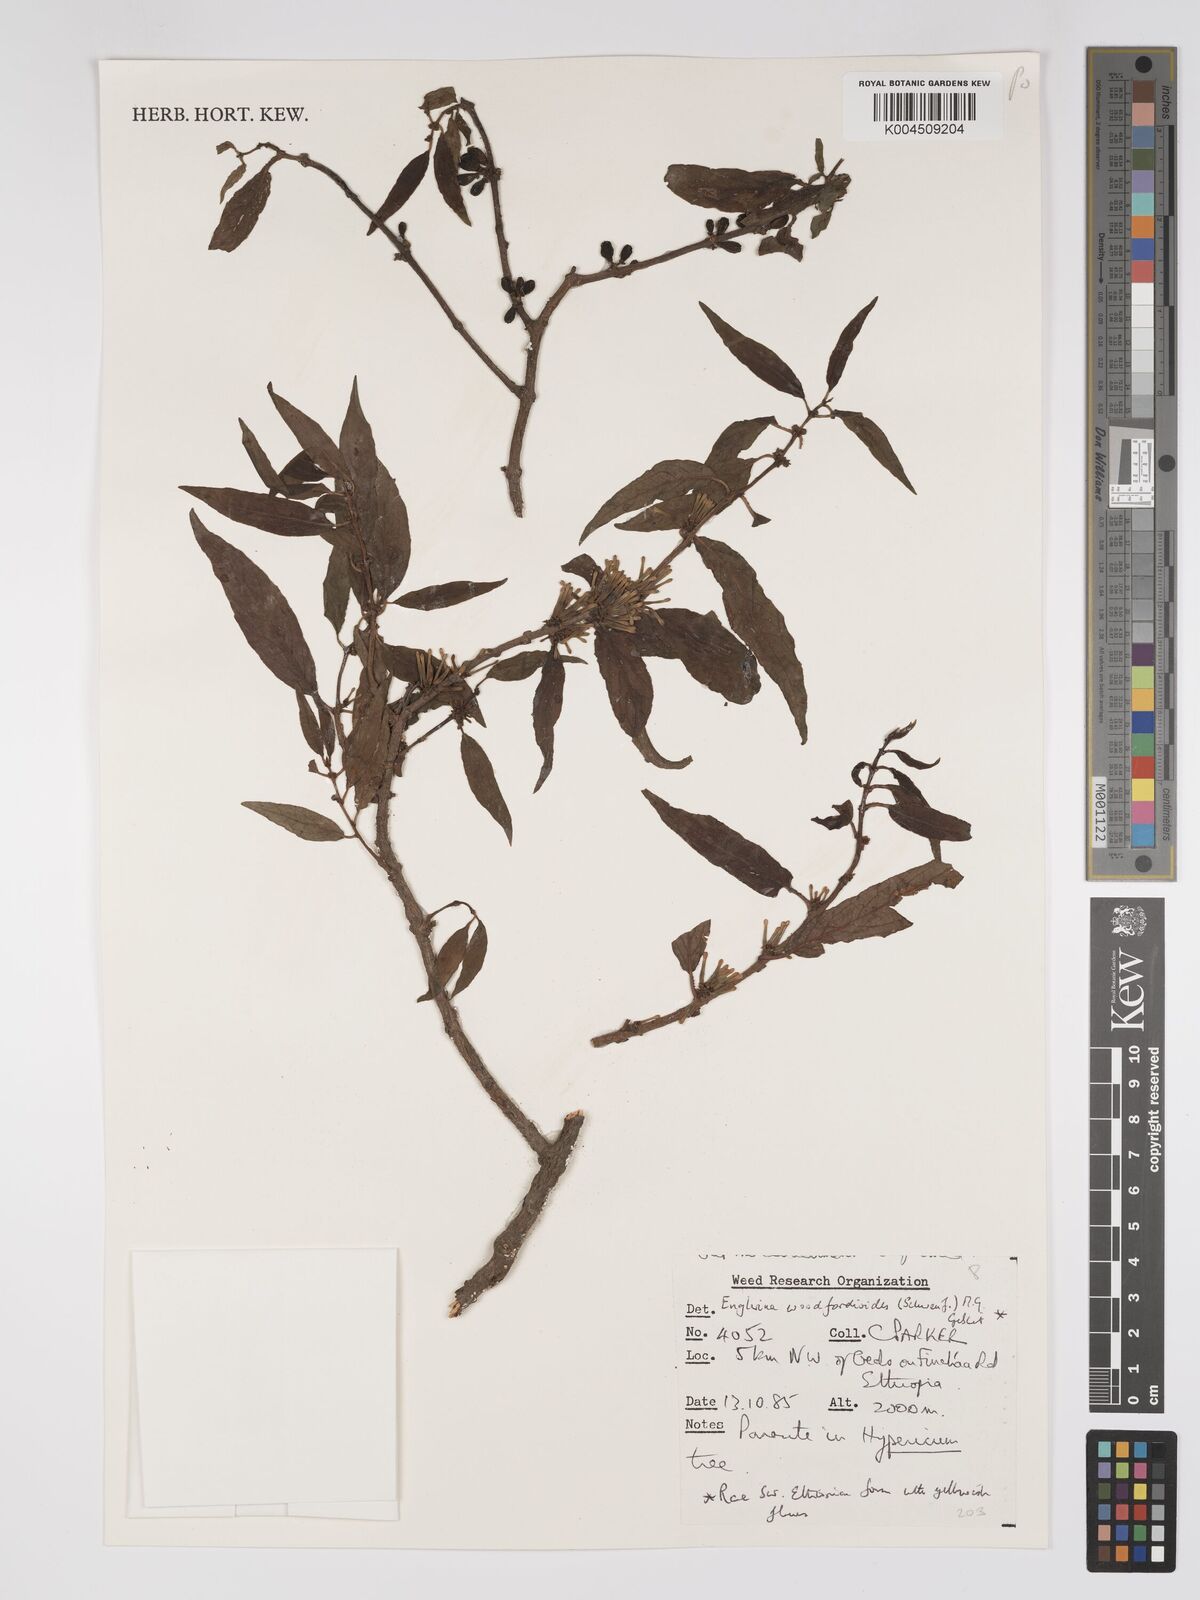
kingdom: Plantae
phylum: Tracheophyta
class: Magnoliopsida
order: Santalales
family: Loranthaceae
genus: Englerina
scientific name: Englerina woodfordioides
